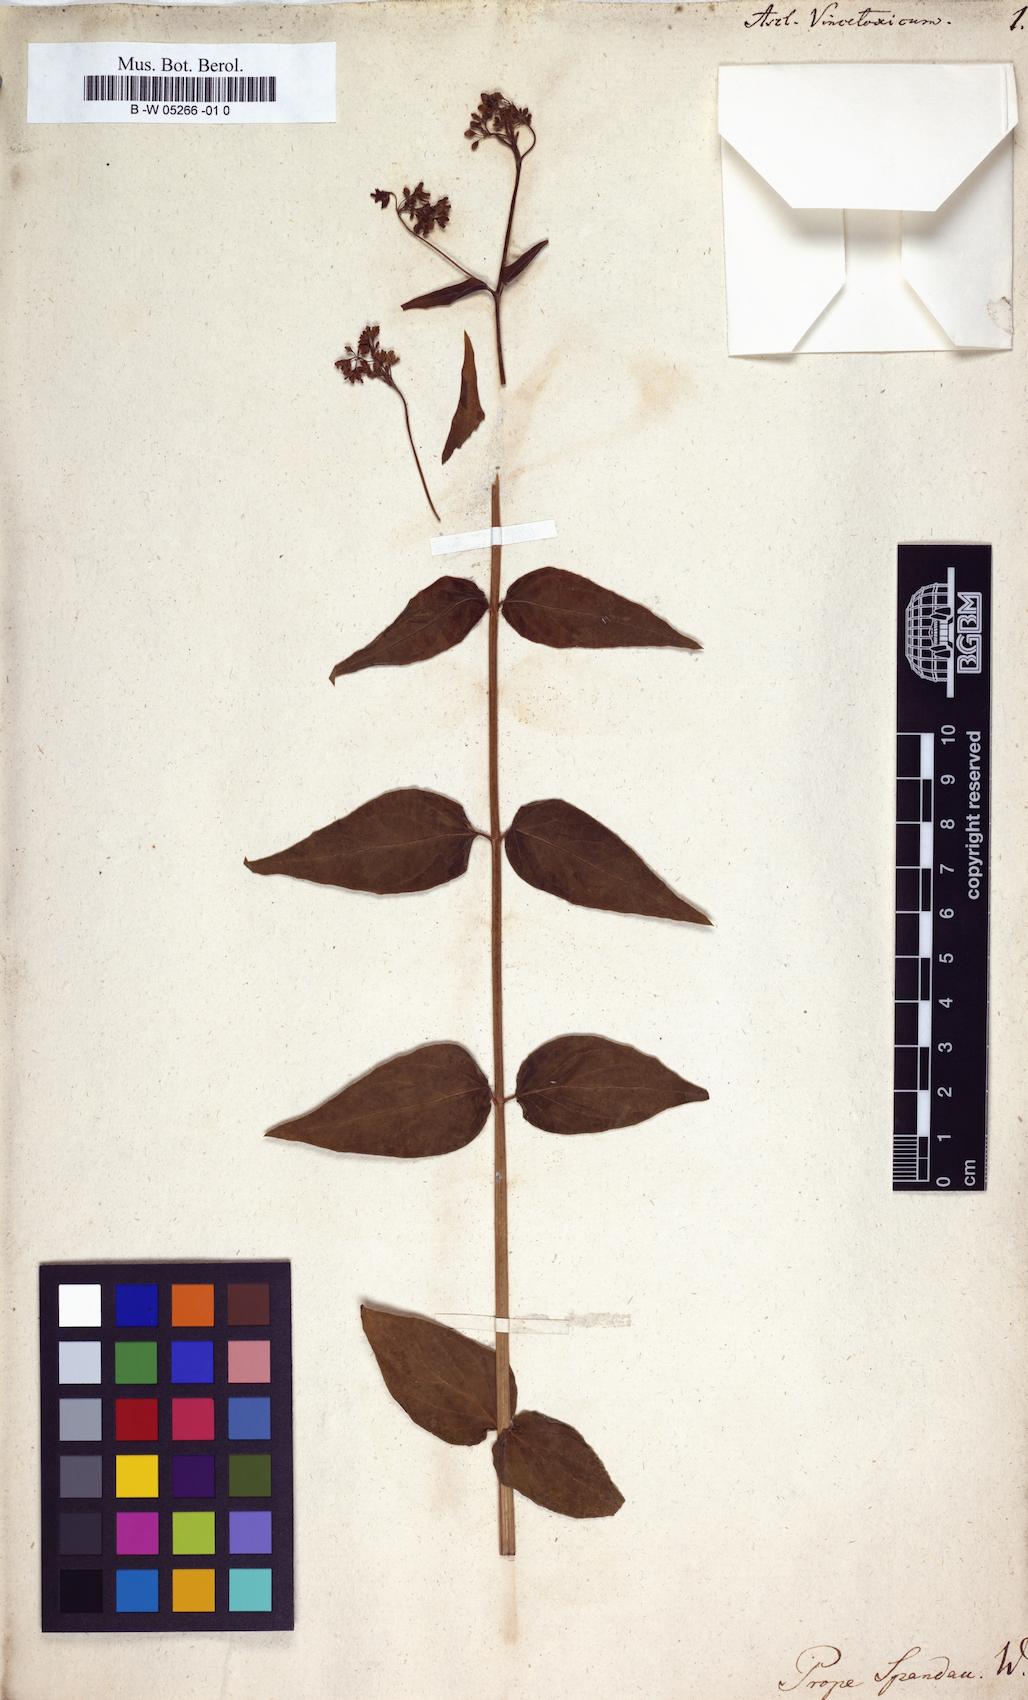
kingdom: Plantae
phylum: Tracheophyta
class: Magnoliopsida
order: Gentianales
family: Apocynaceae
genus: Vincetoxicum
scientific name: Vincetoxicum hirundinaria
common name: White swallowwort
